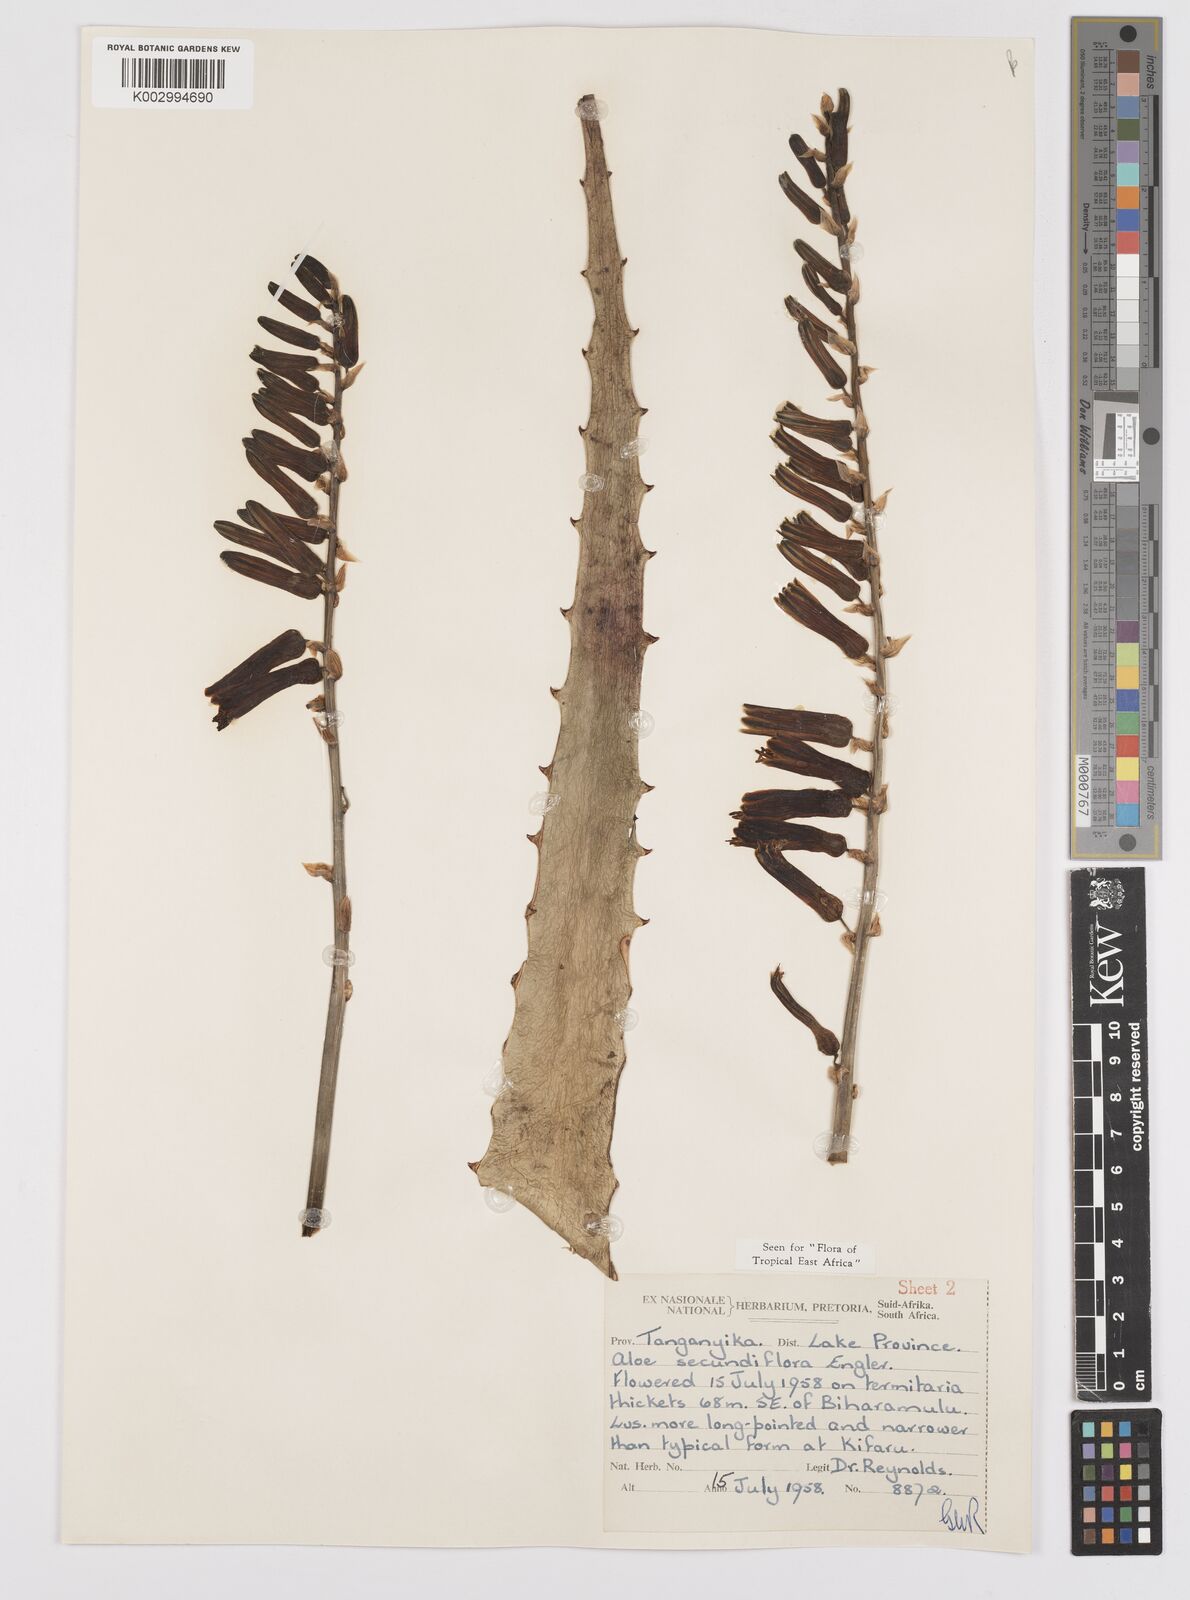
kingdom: Plantae
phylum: Tracheophyta
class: Liliopsida
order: Asparagales
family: Asphodelaceae
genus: Aloe
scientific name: Aloe secundiflora
